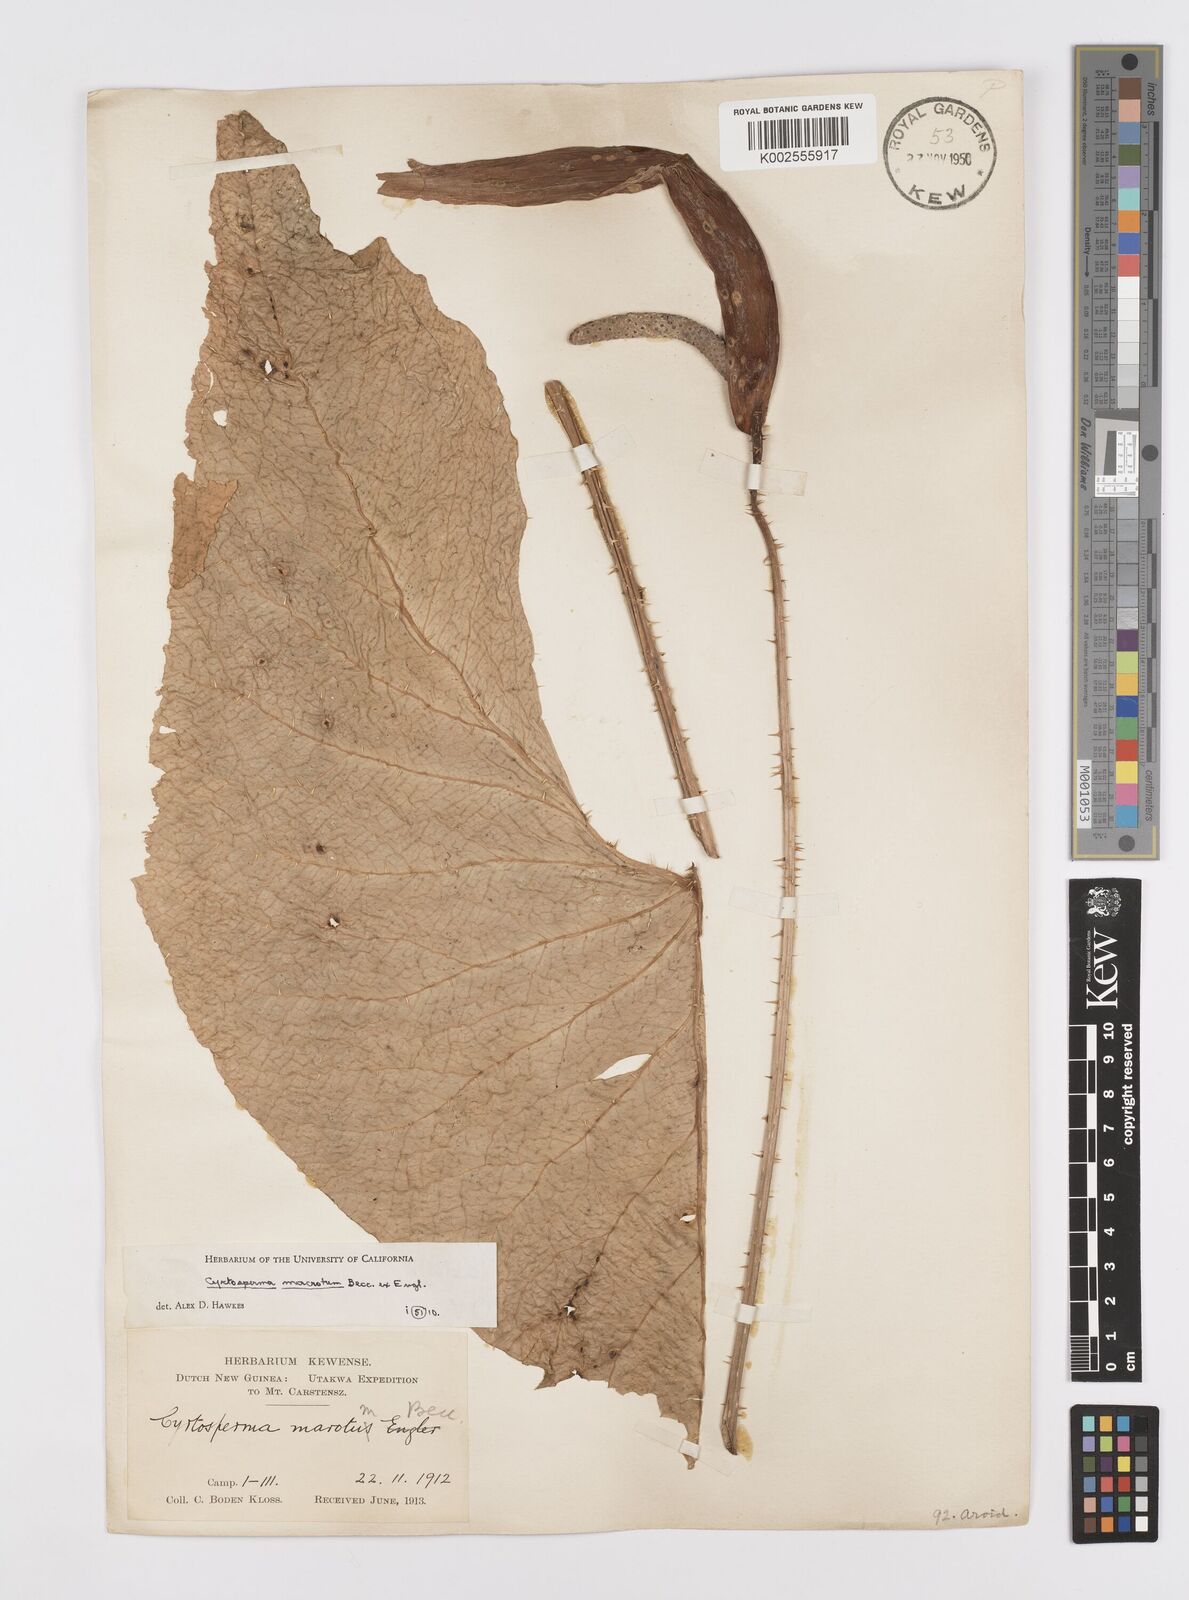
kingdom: Plantae
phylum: Tracheophyta
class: Liliopsida
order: Alismatales
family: Araceae
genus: Cyrtosperma
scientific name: Cyrtosperma macrotum
